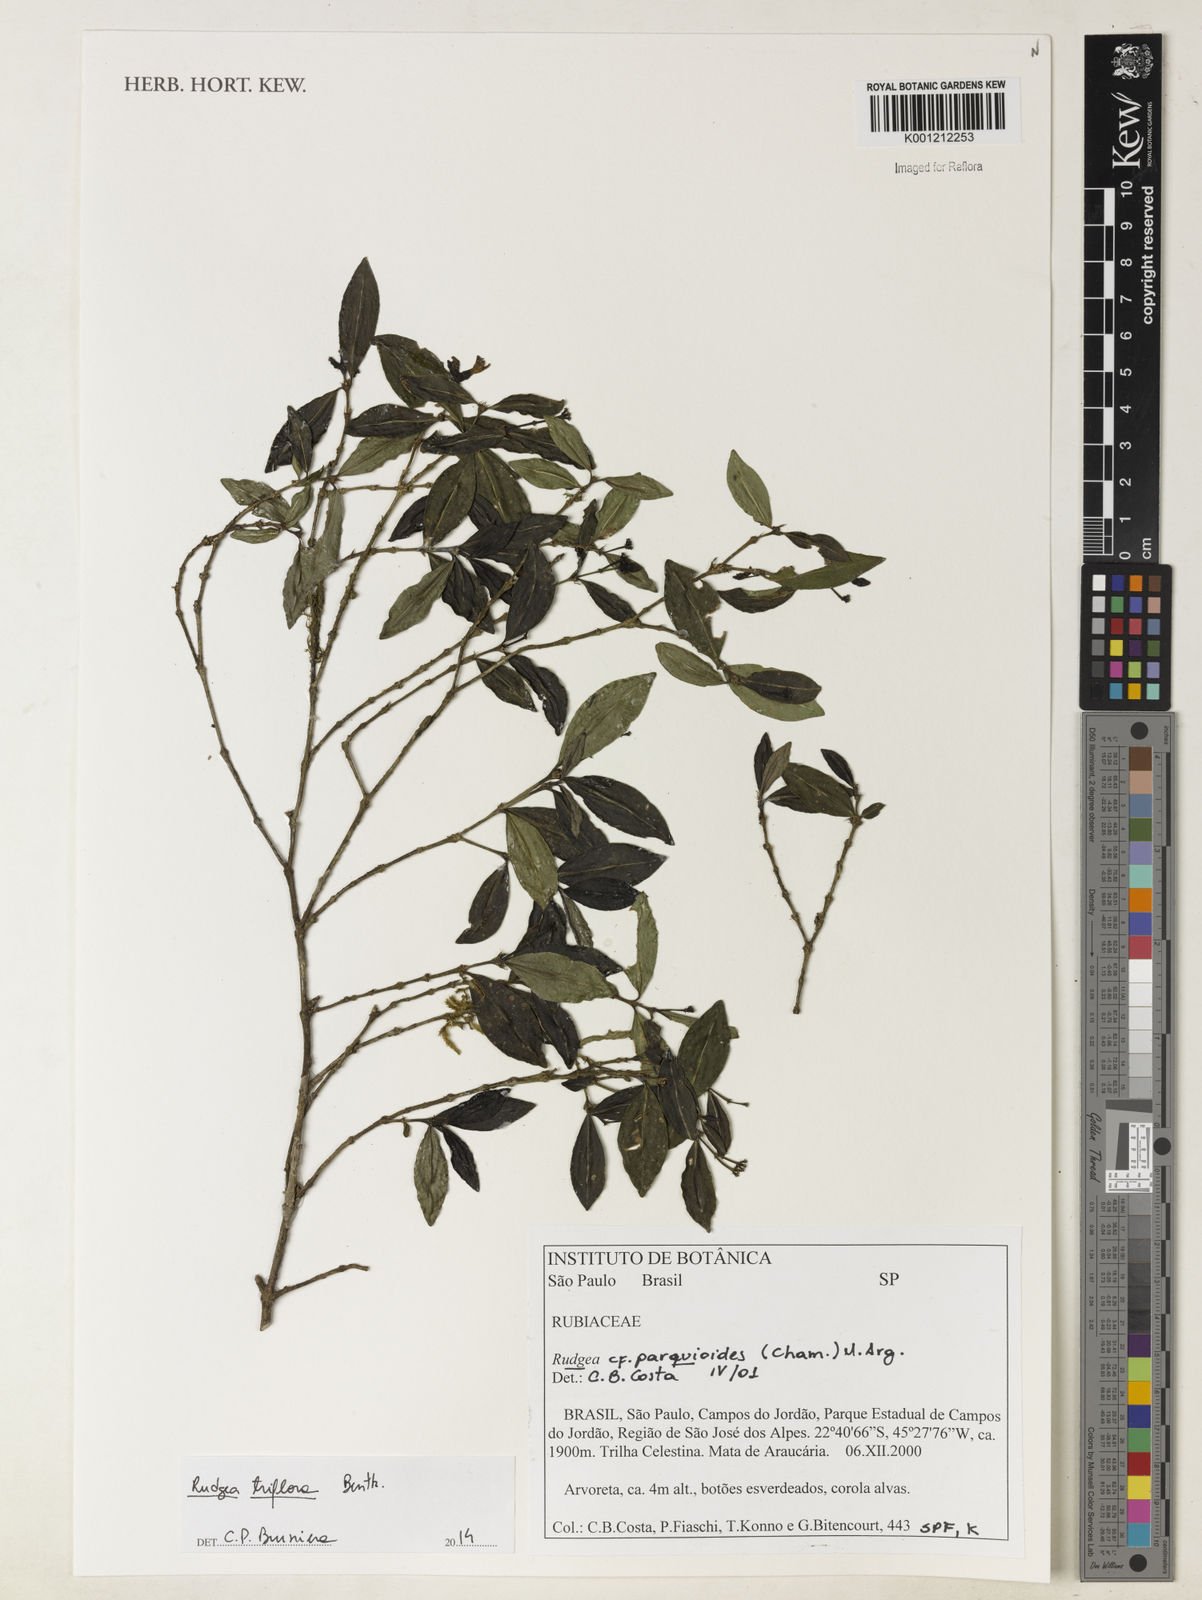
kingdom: Plantae
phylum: Tracheophyta
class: Magnoliopsida
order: Gentianales
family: Rubiaceae
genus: Rudgea
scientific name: Rudgea triflora
